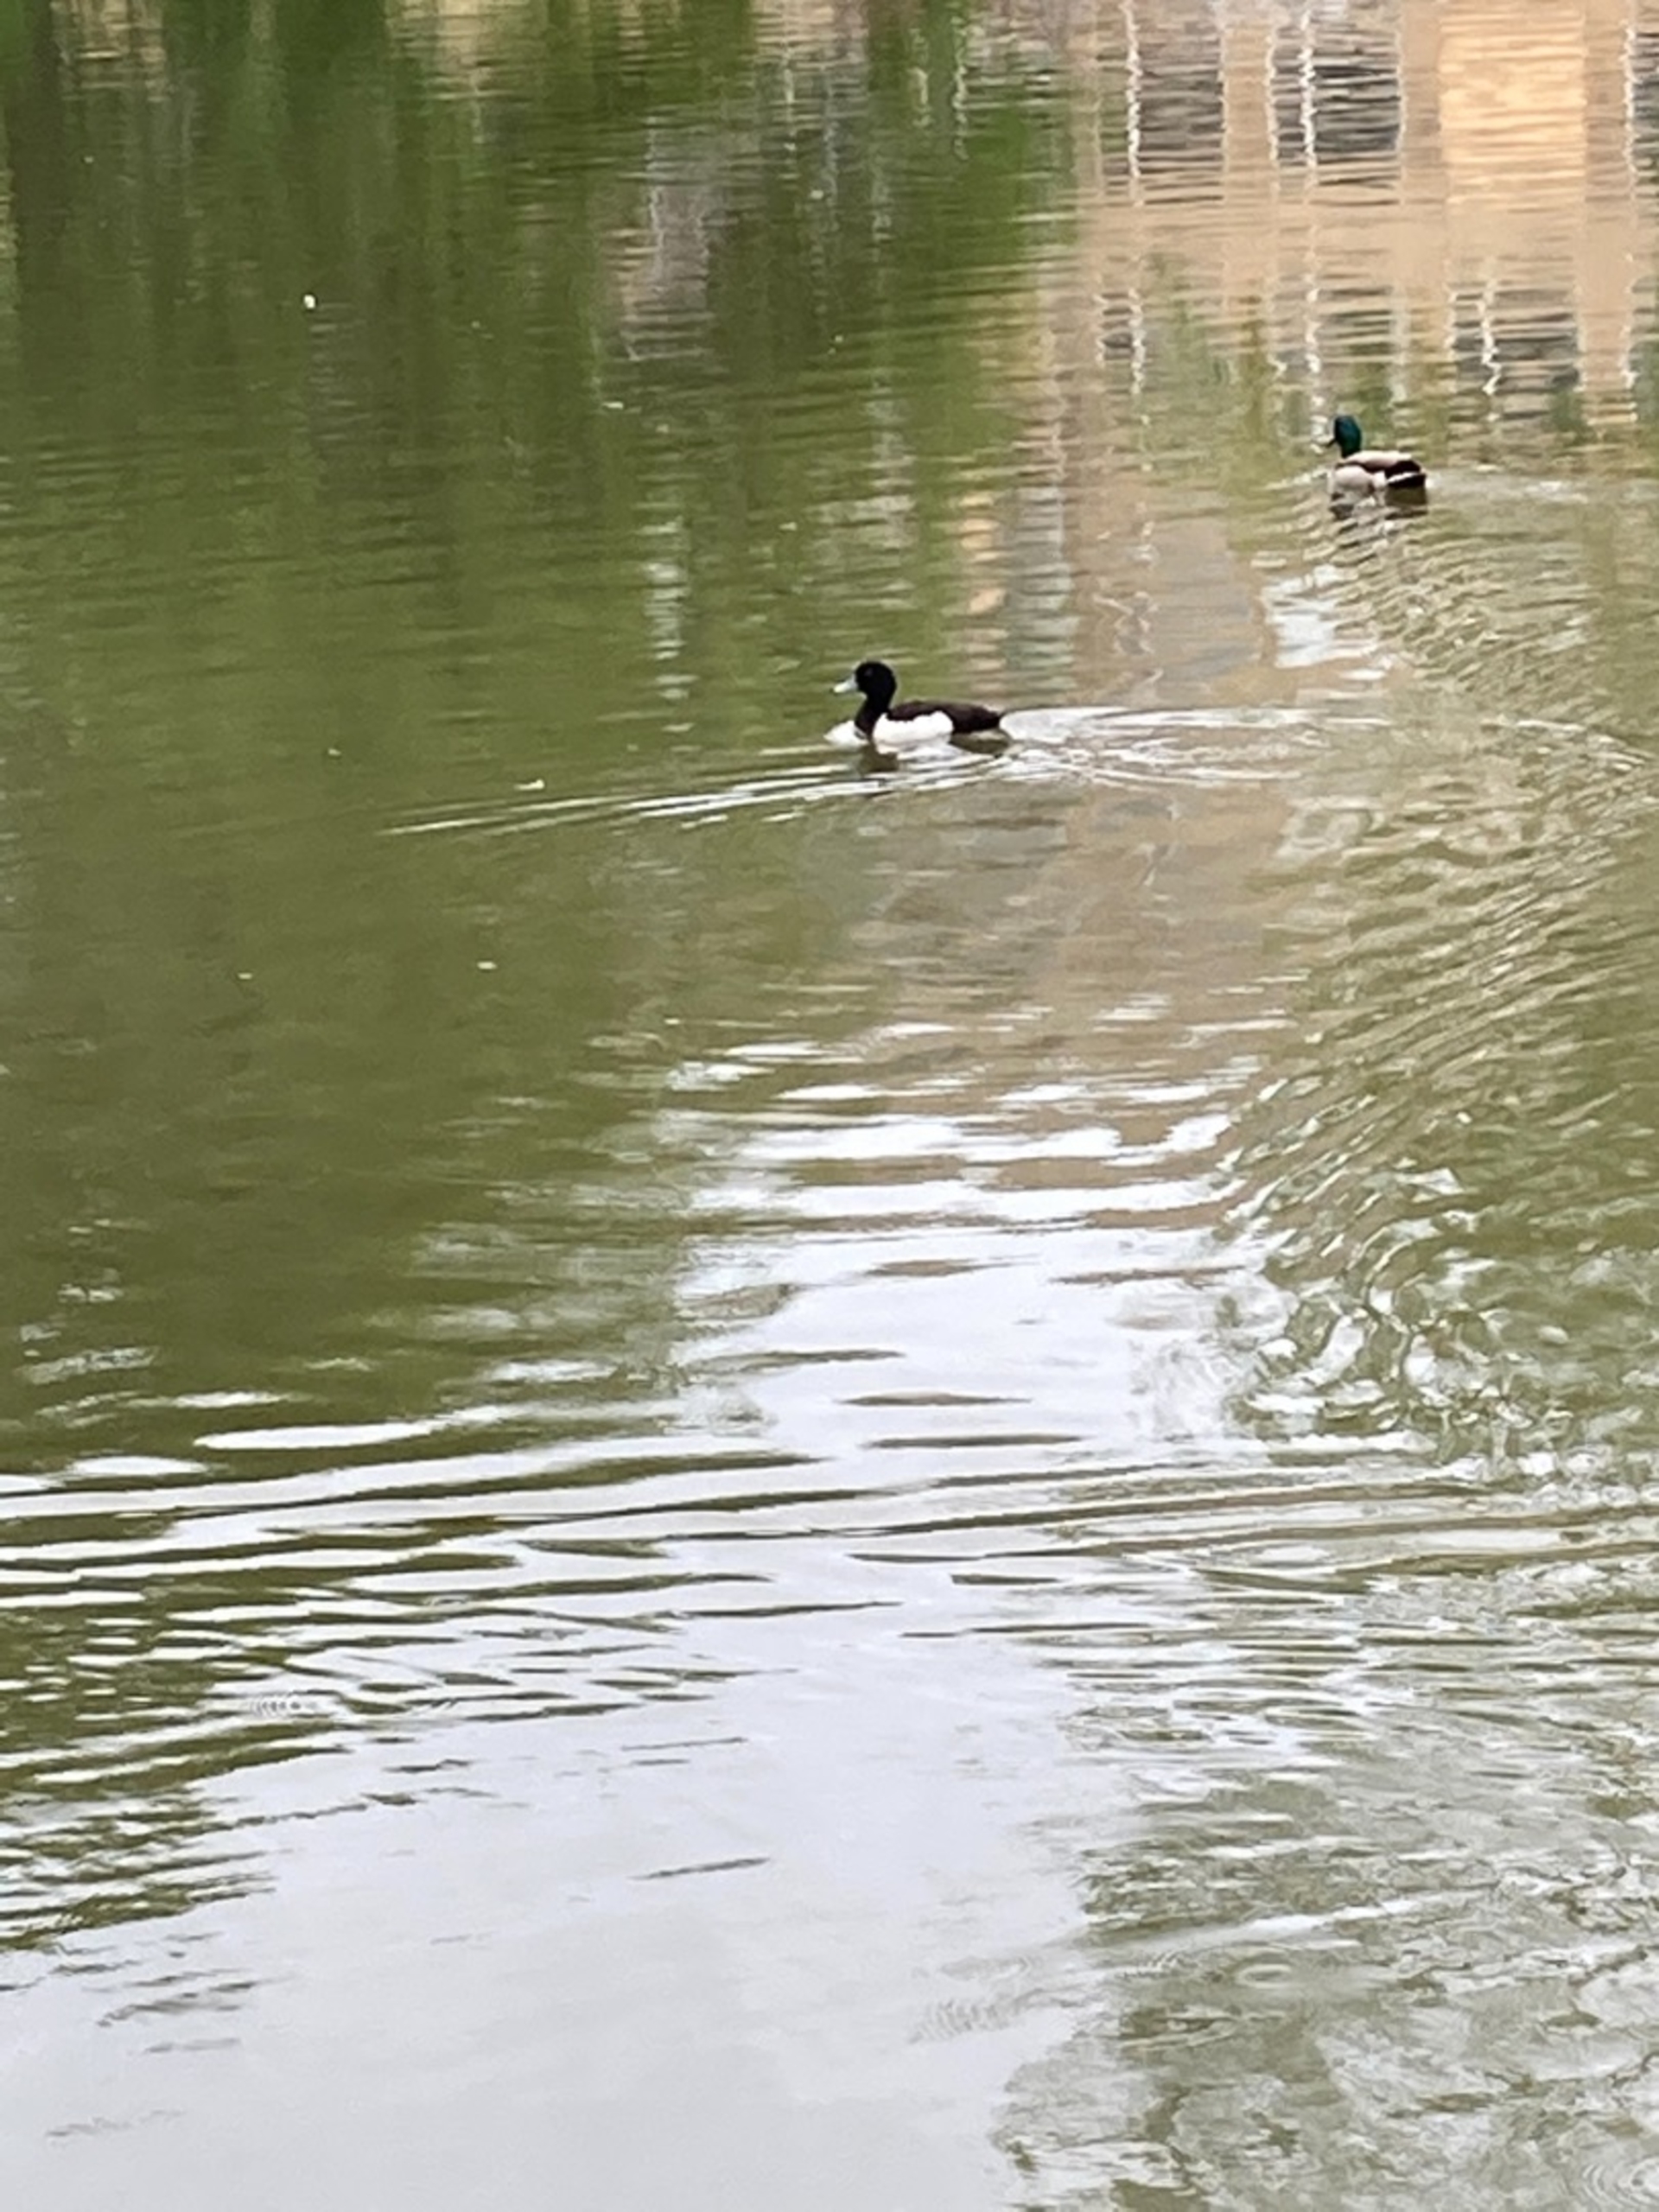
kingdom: Animalia
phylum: Chordata
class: Aves
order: Anseriformes
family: Anatidae
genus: Aythya
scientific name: Aythya fuligula
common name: Troldand
